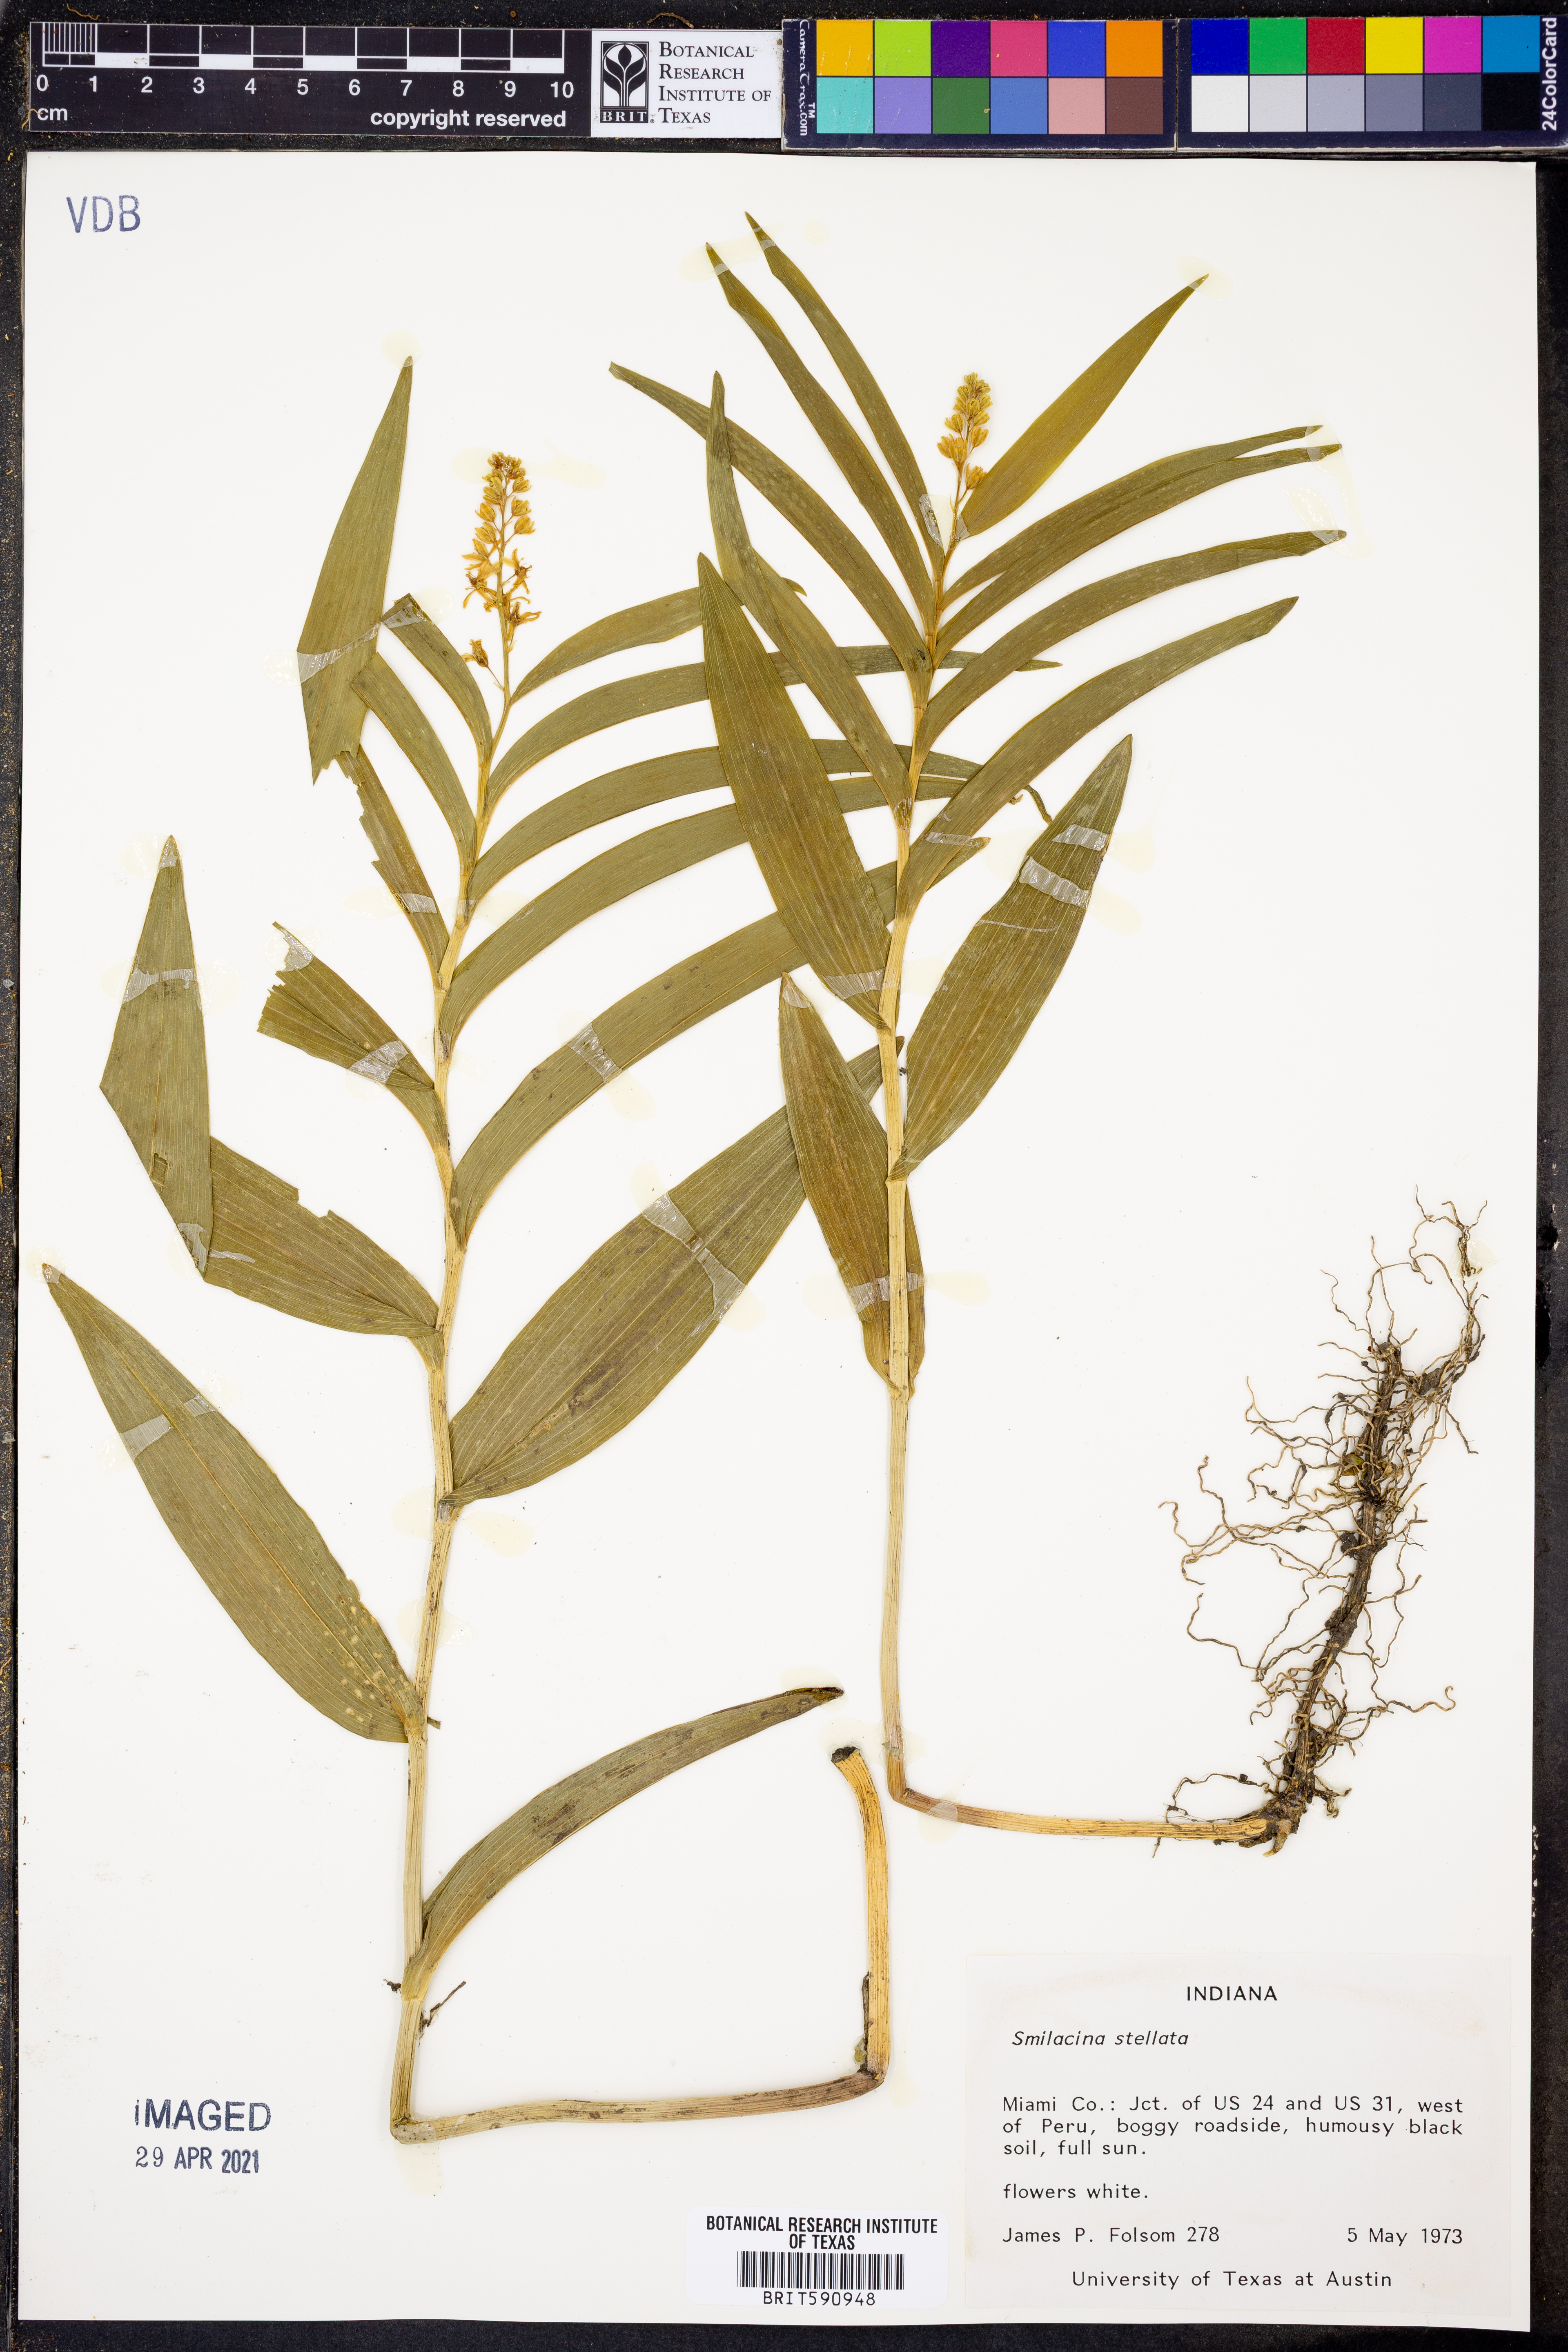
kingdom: Plantae
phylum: Tracheophyta
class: Liliopsida
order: Asparagales
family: Asparagaceae
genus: Maianthemum
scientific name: Maianthemum stellatum
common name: Little false solomon's seal
